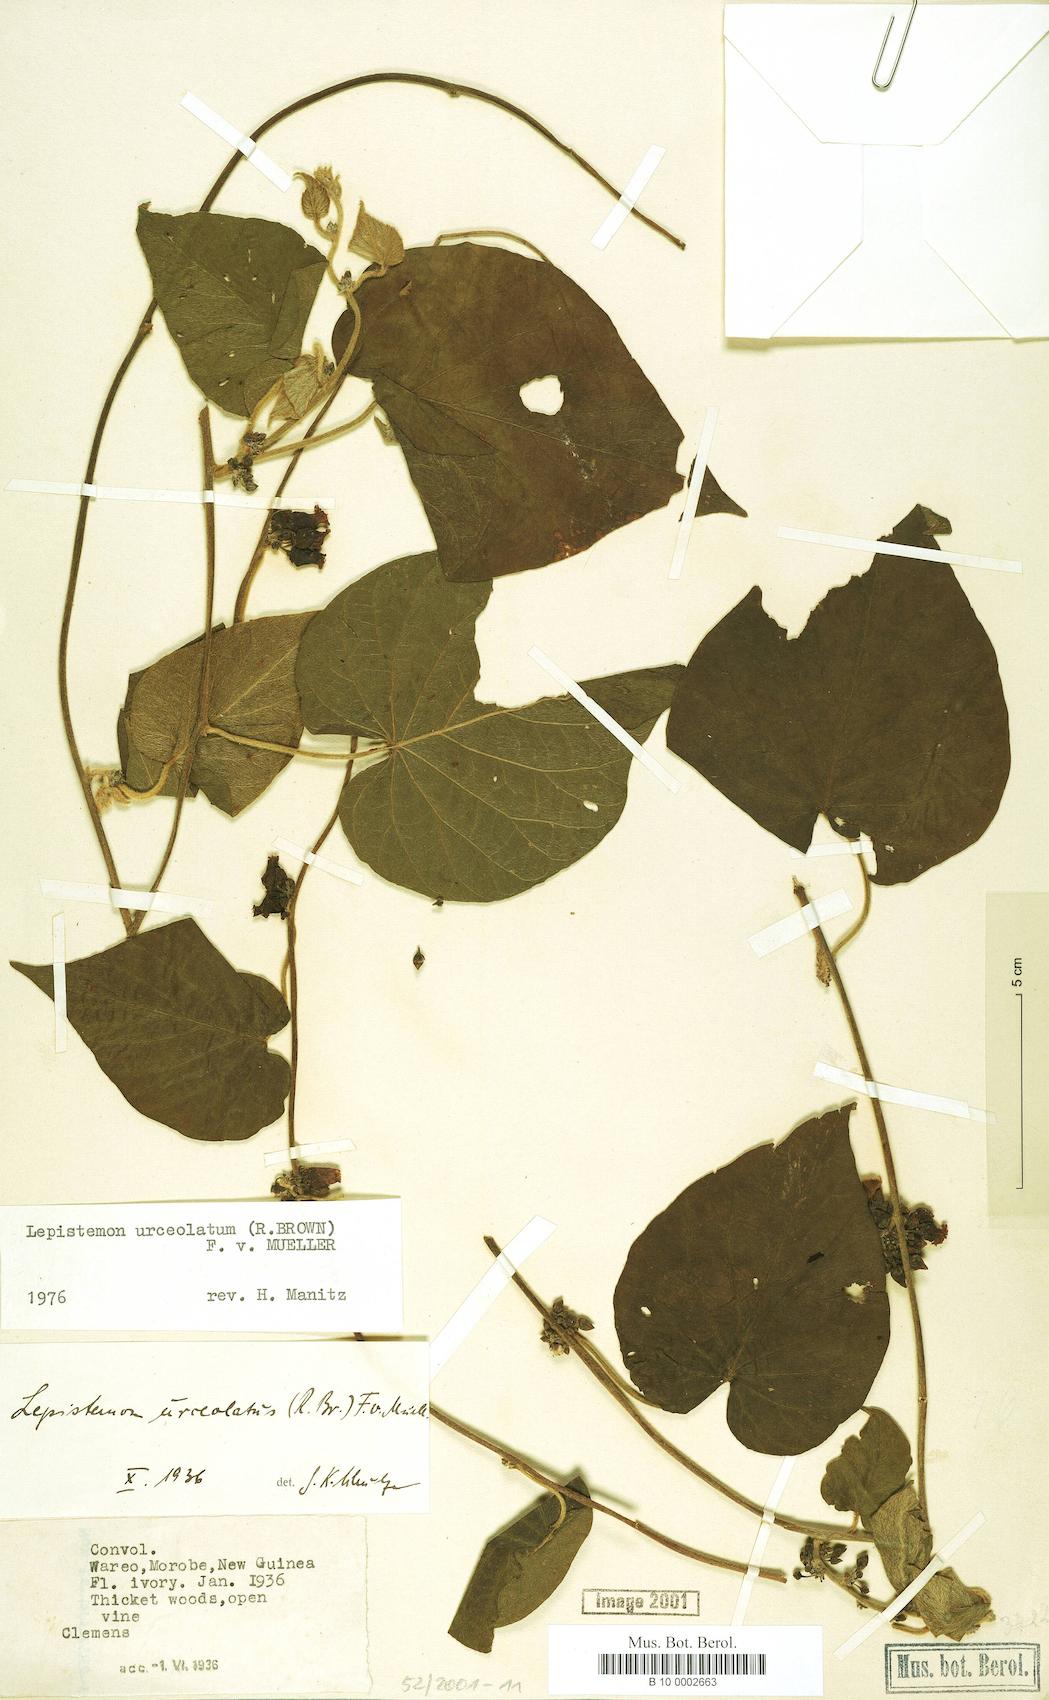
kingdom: Plantae
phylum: Tracheophyta
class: Magnoliopsida
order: Solanales
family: Convolvulaceae
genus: Lepistemon
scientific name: Lepistemon urceolatus
